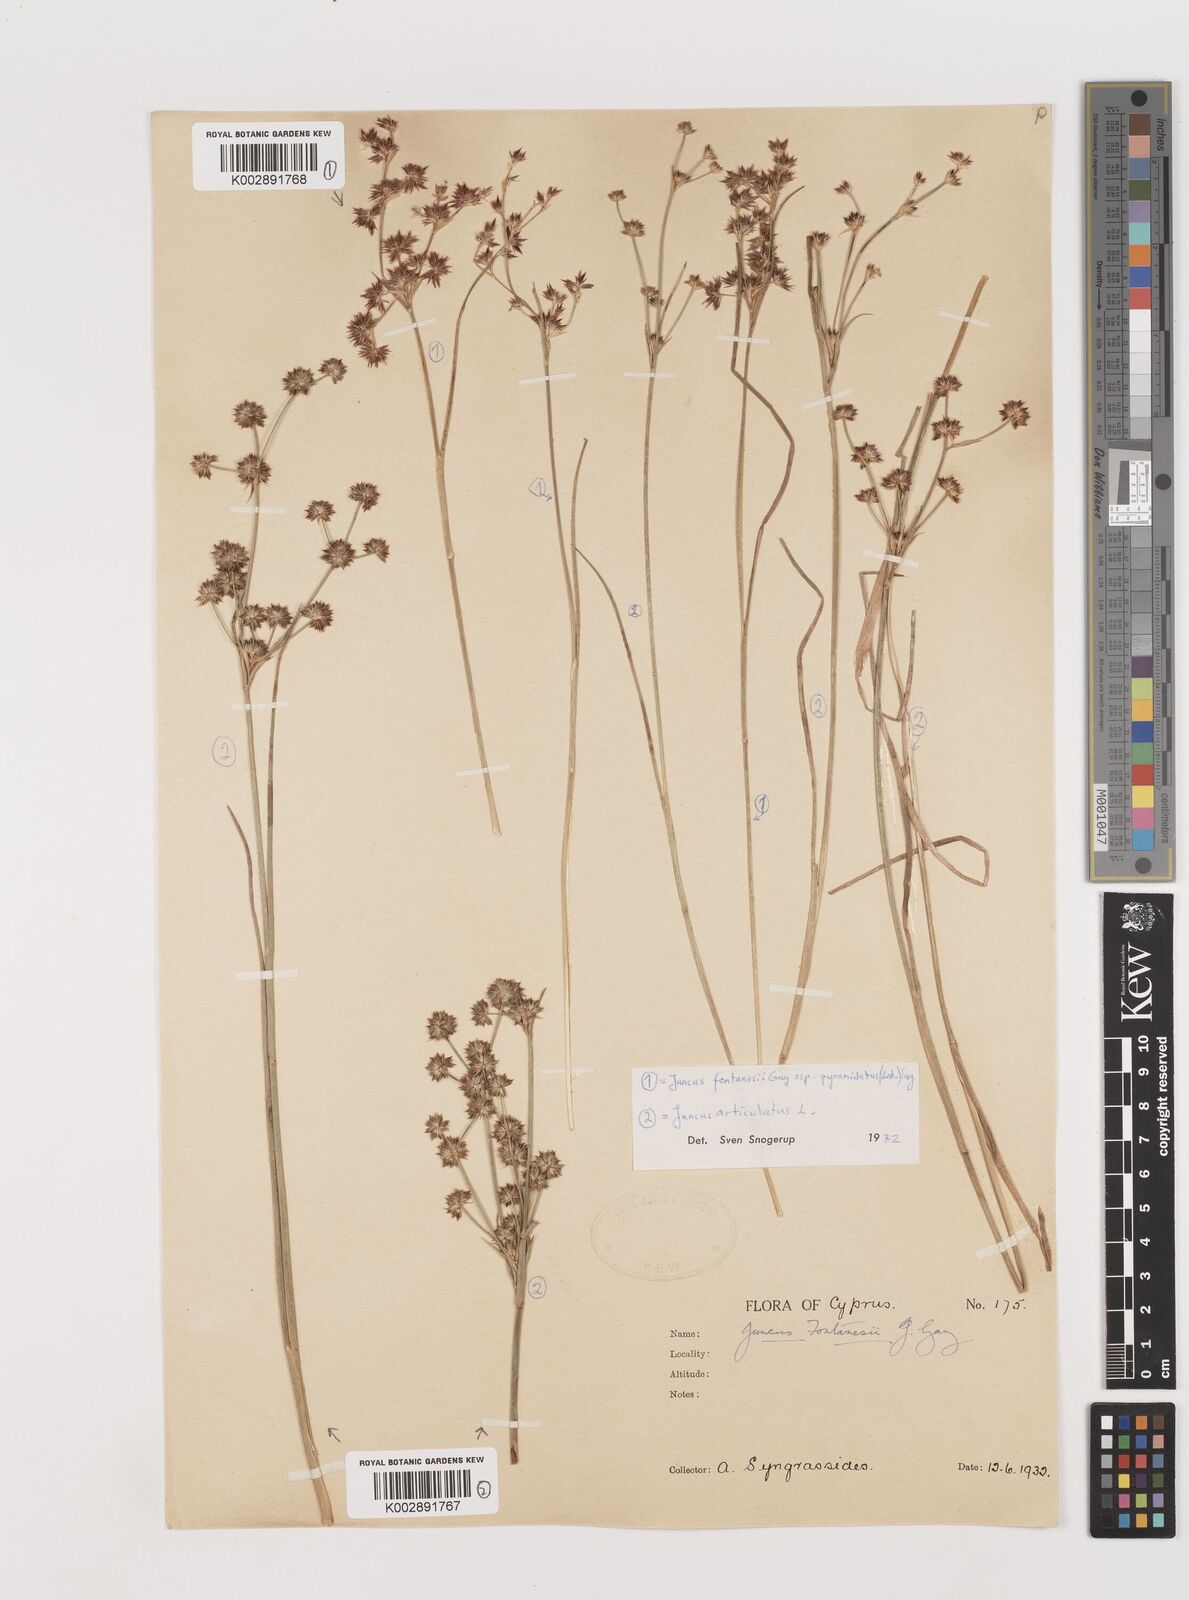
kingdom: Plantae
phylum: Tracheophyta
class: Liliopsida
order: Poales
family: Juncaceae
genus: Juncus
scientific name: Juncus articulatus
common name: Jointed rush
